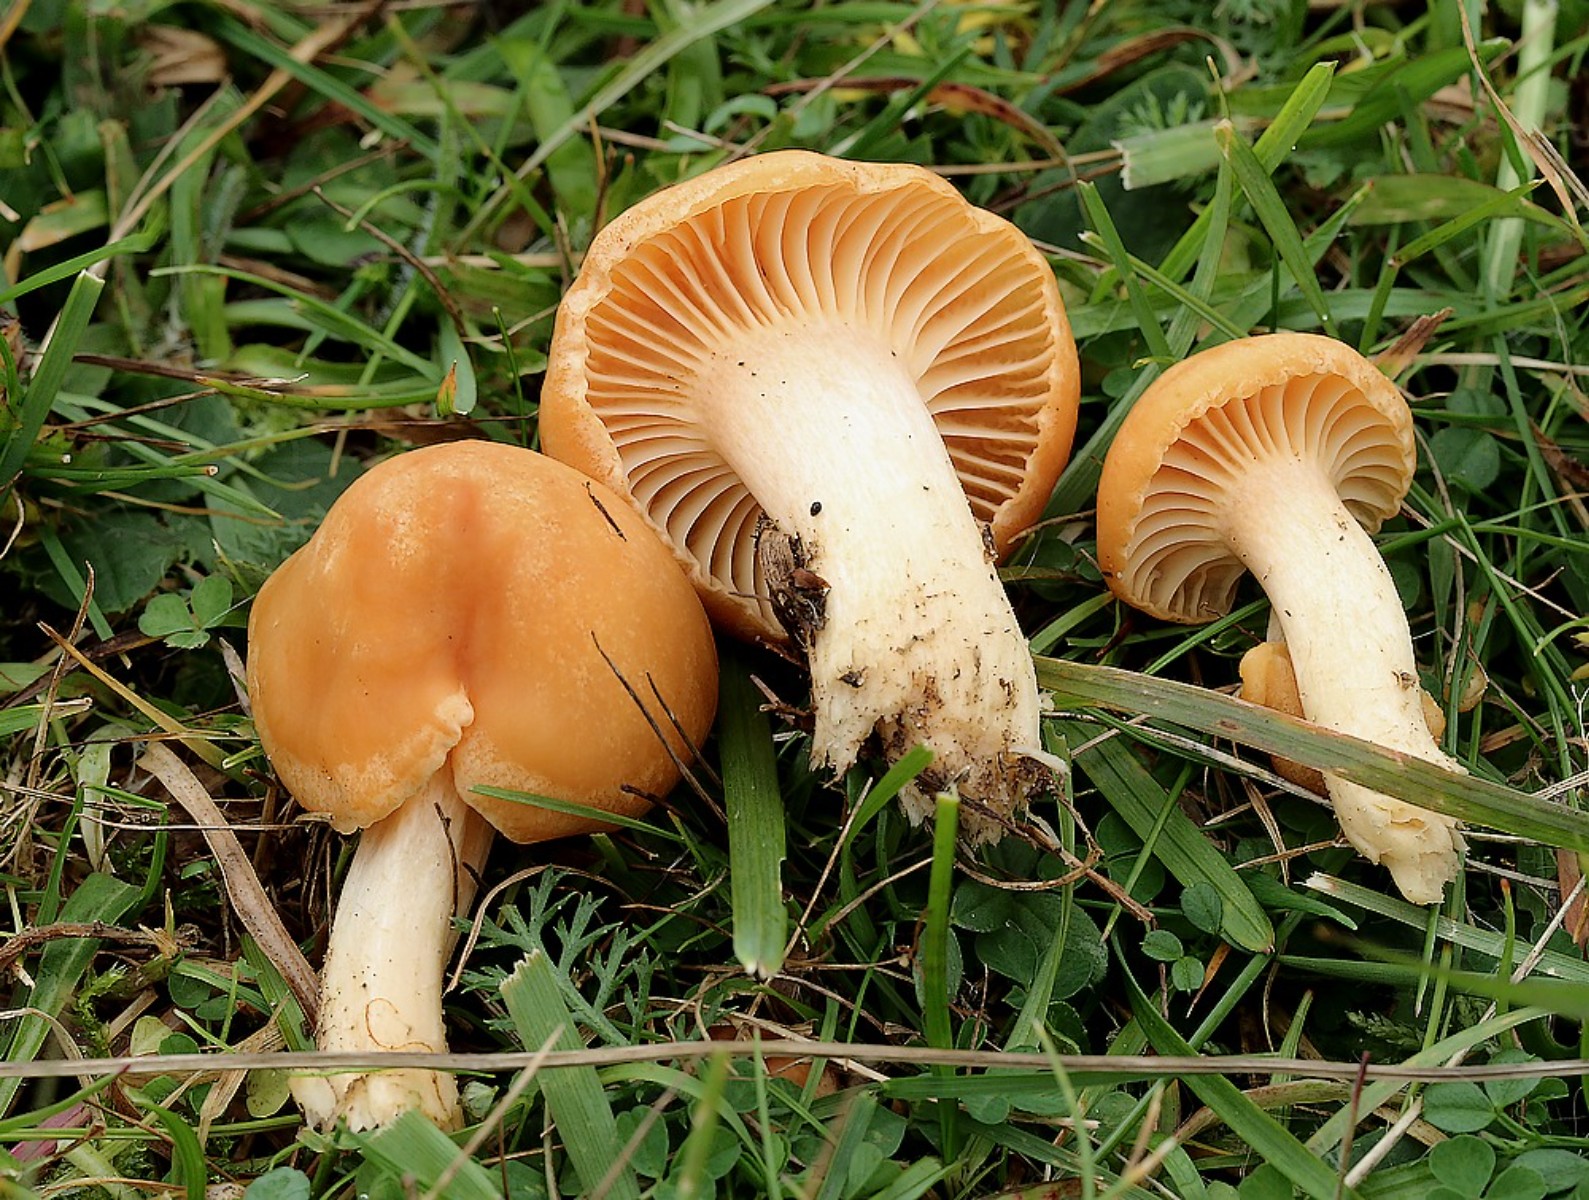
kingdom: Fungi
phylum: Basidiomycota
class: Agaricomycetes
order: Agaricales
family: Hygrophoraceae
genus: Cuphophyllus
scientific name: Cuphophyllus pratensis
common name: eng-vokshat
